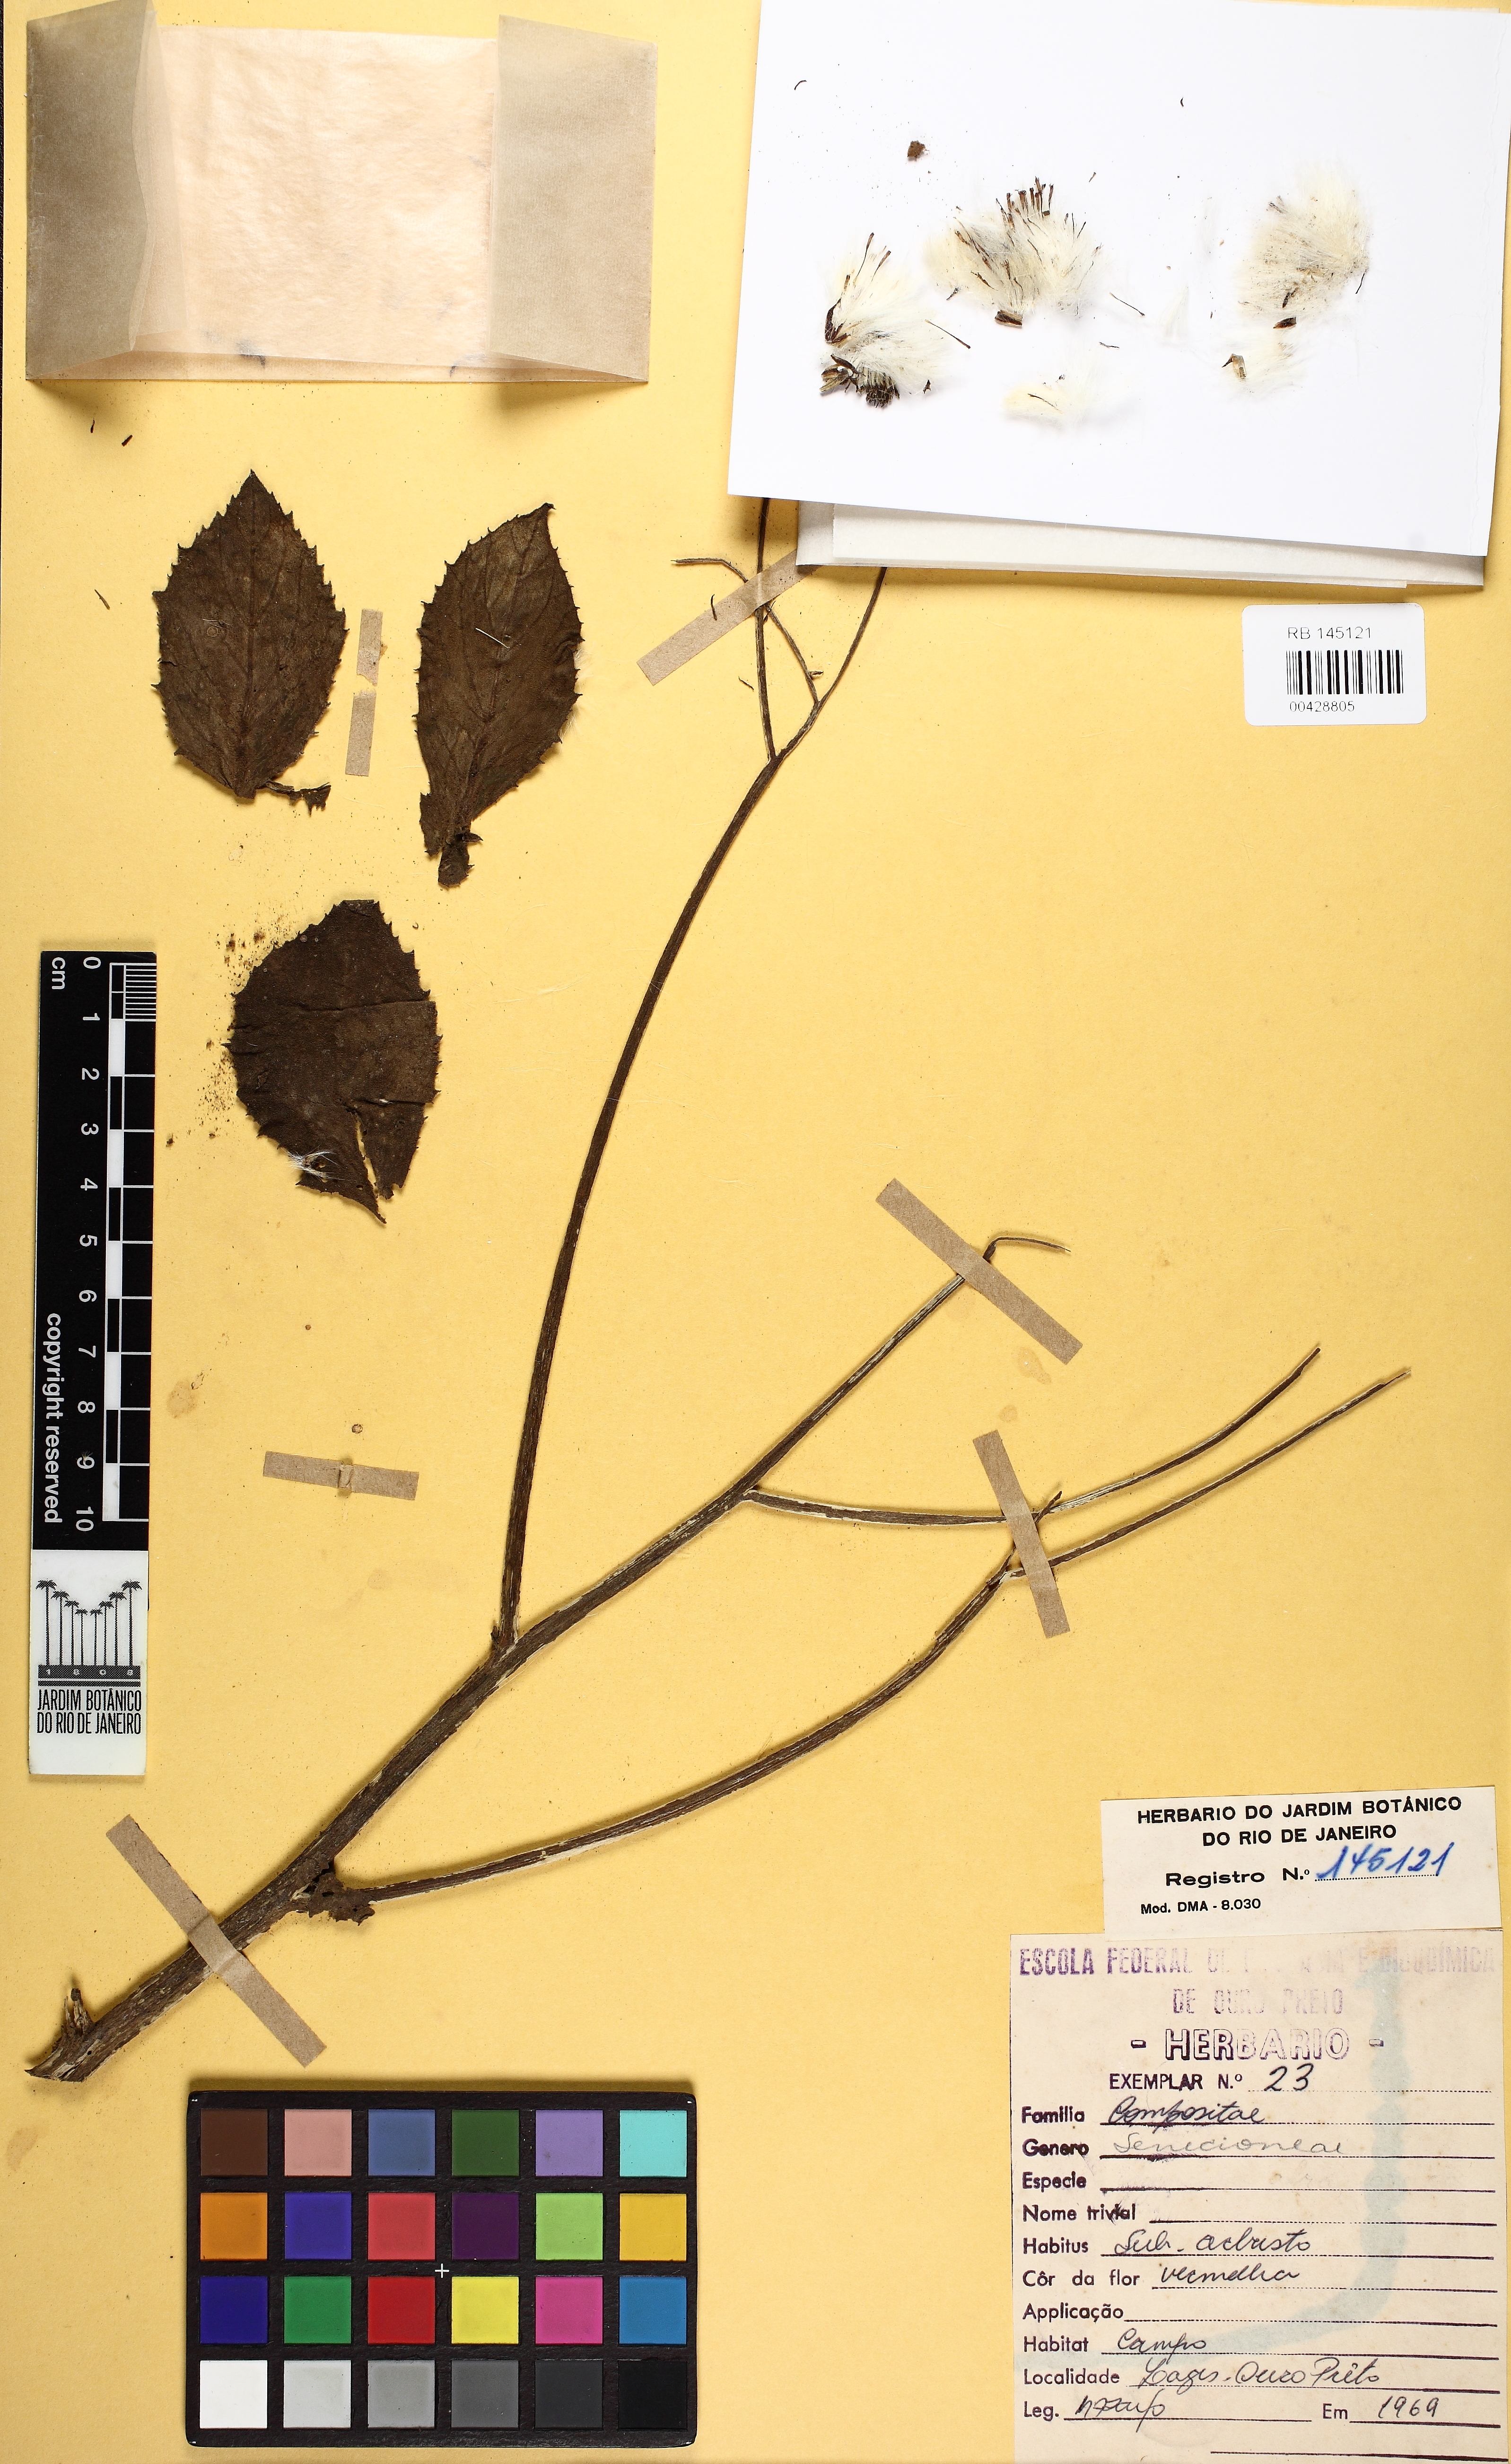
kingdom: Plantae
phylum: Tracheophyta
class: Magnoliopsida
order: Asterales
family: Asteraceae
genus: Senecio
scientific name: Senecio
